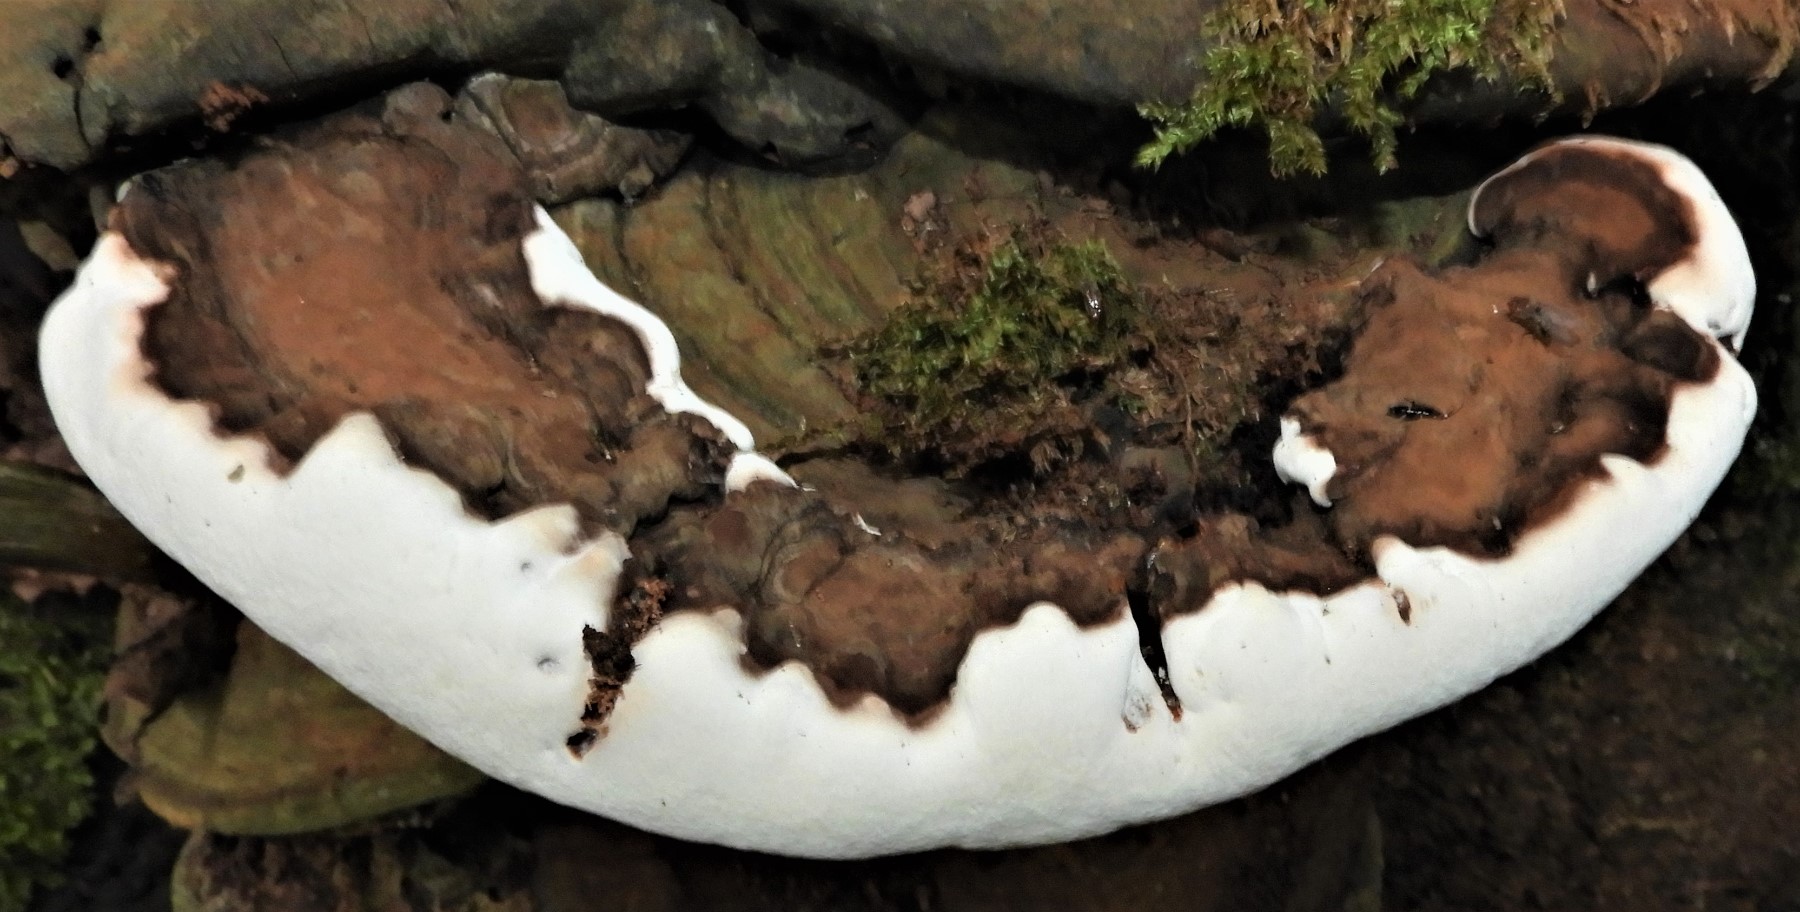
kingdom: Fungi
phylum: Basidiomycota
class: Agaricomycetes
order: Polyporales
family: Polyporaceae
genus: Ganoderma
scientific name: Ganoderma applanatum
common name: flad lakporesvamp
